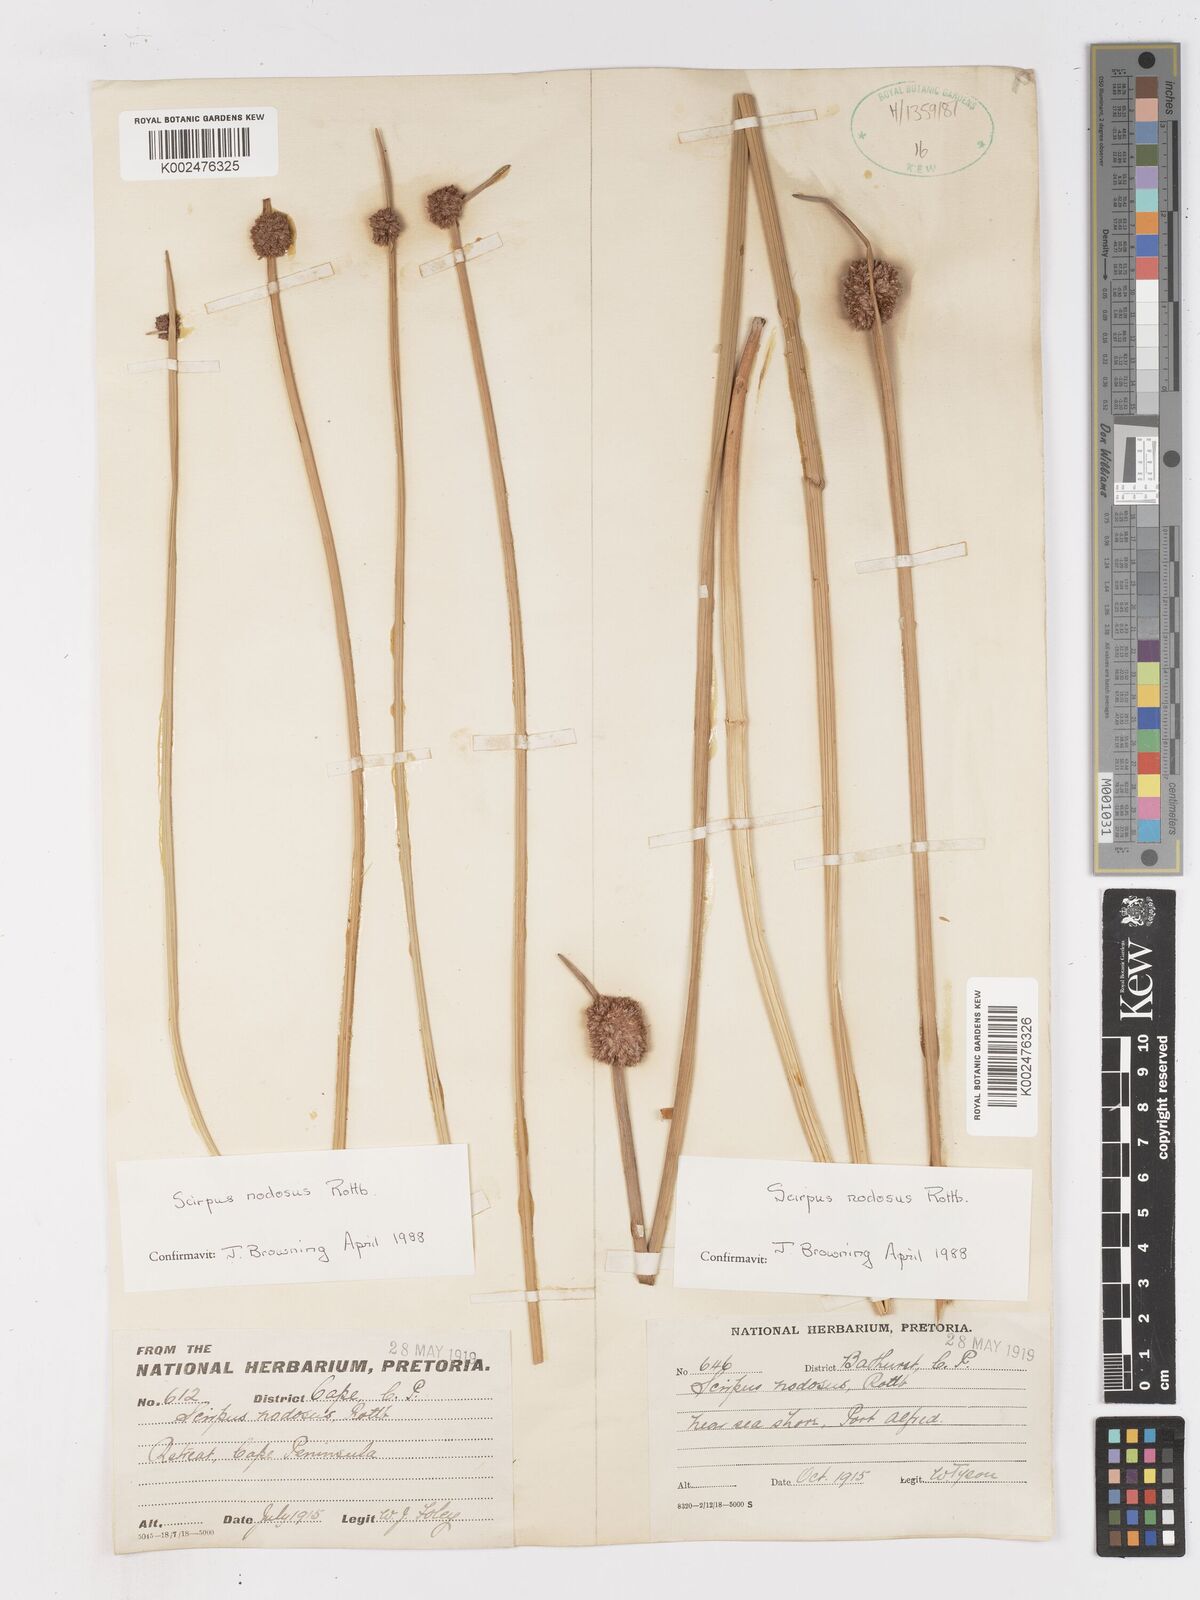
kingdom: Plantae
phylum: Tracheophyta
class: Liliopsida
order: Poales
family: Cyperaceae
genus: Ficinia
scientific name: Ficinia nodosa
